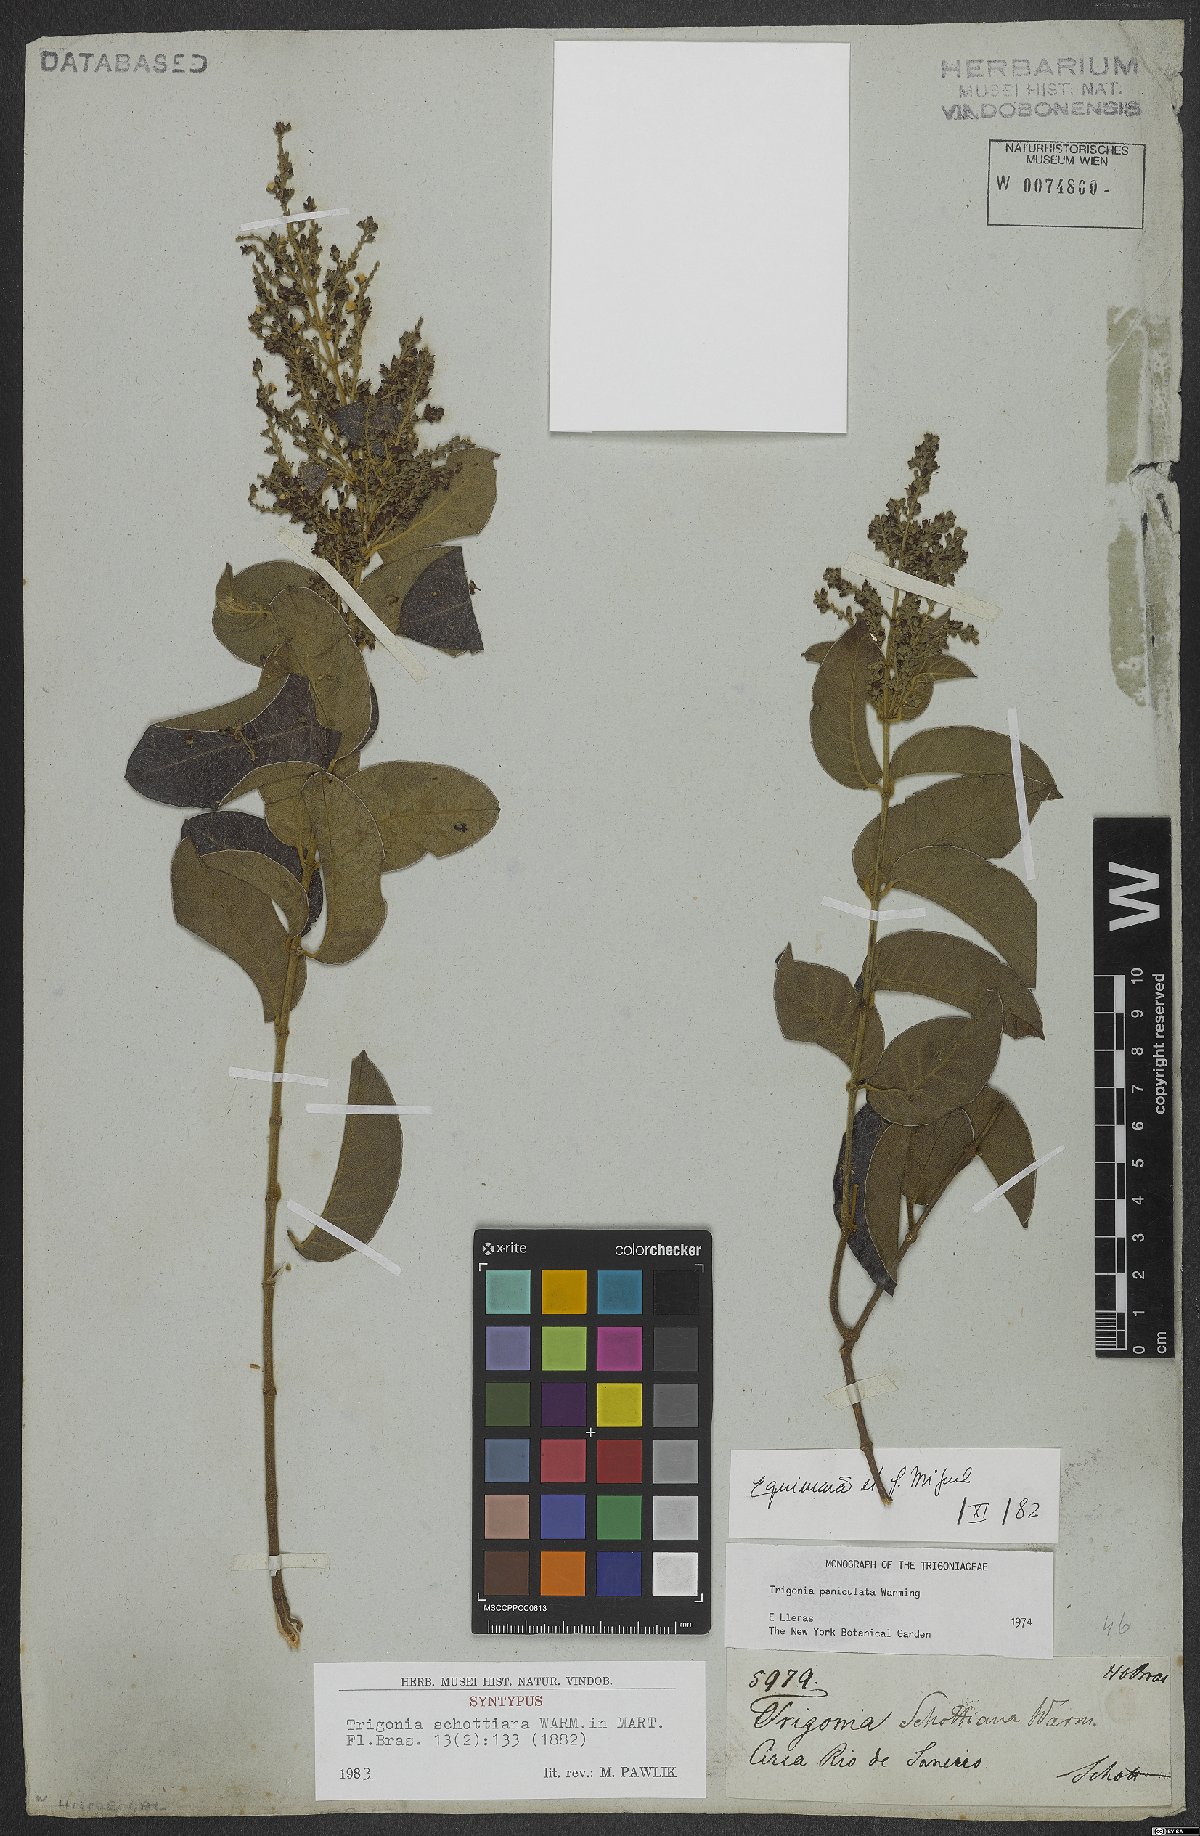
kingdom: Plantae
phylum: Tracheophyta
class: Magnoliopsida
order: Malpighiales
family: Trigoniaceae
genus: Trigonia
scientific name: Trigonia paniculata
